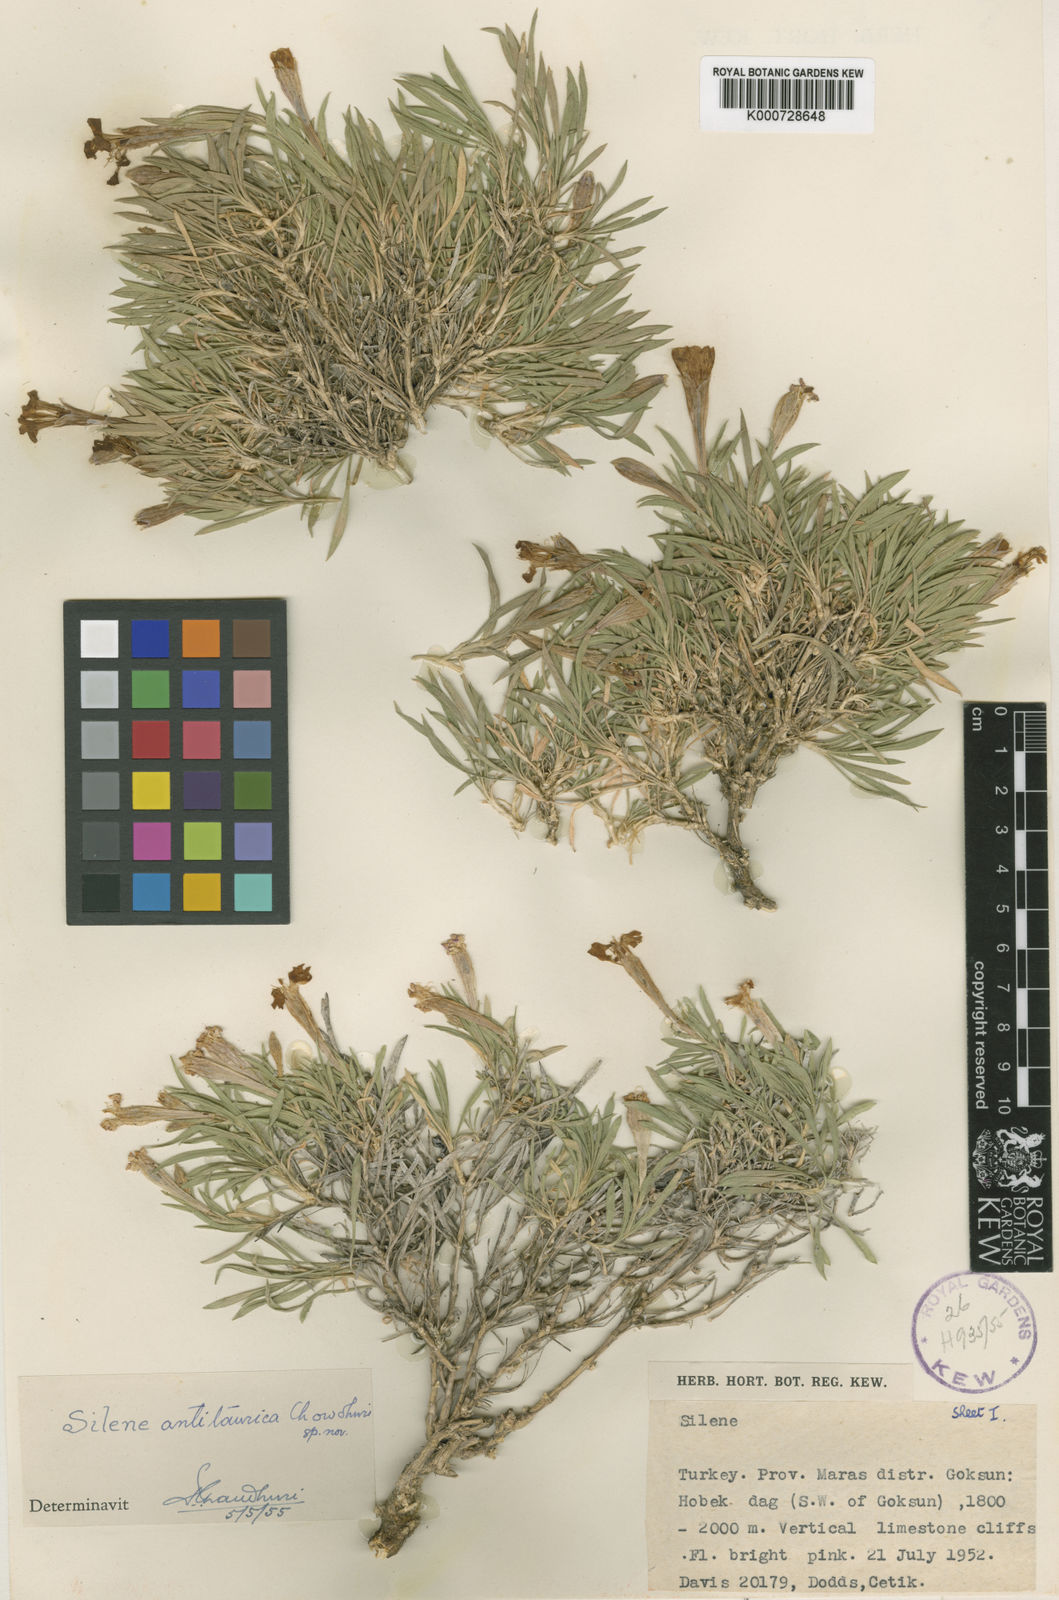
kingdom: Plantae
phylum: Tracheophyta
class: Magnoliopsida
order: Caryophyllales
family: Caryophyllaceae
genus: Silene
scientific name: Silene brevicaulis
